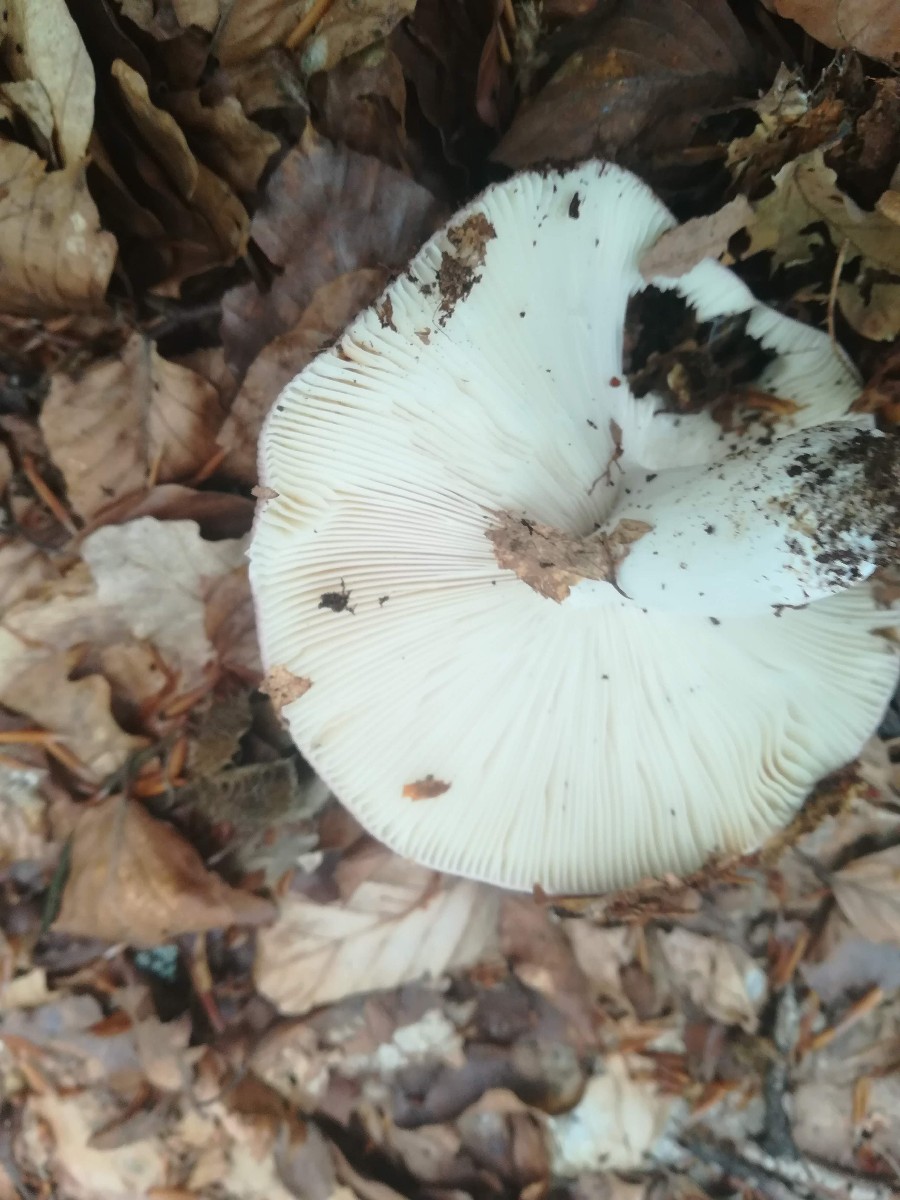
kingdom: Fungi
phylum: Basidiomycota
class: Agaricomycetes
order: Russulales
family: Russulaceae
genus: Russula
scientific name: Russula cyanoxantha
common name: broget skørhat
